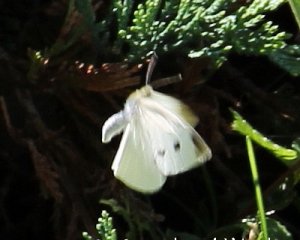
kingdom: Animalia
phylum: Arthropoda
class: Insecta
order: Lepidoptera
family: Pieridae
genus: Pieris
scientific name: Pieris rapae
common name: Cabbage White
